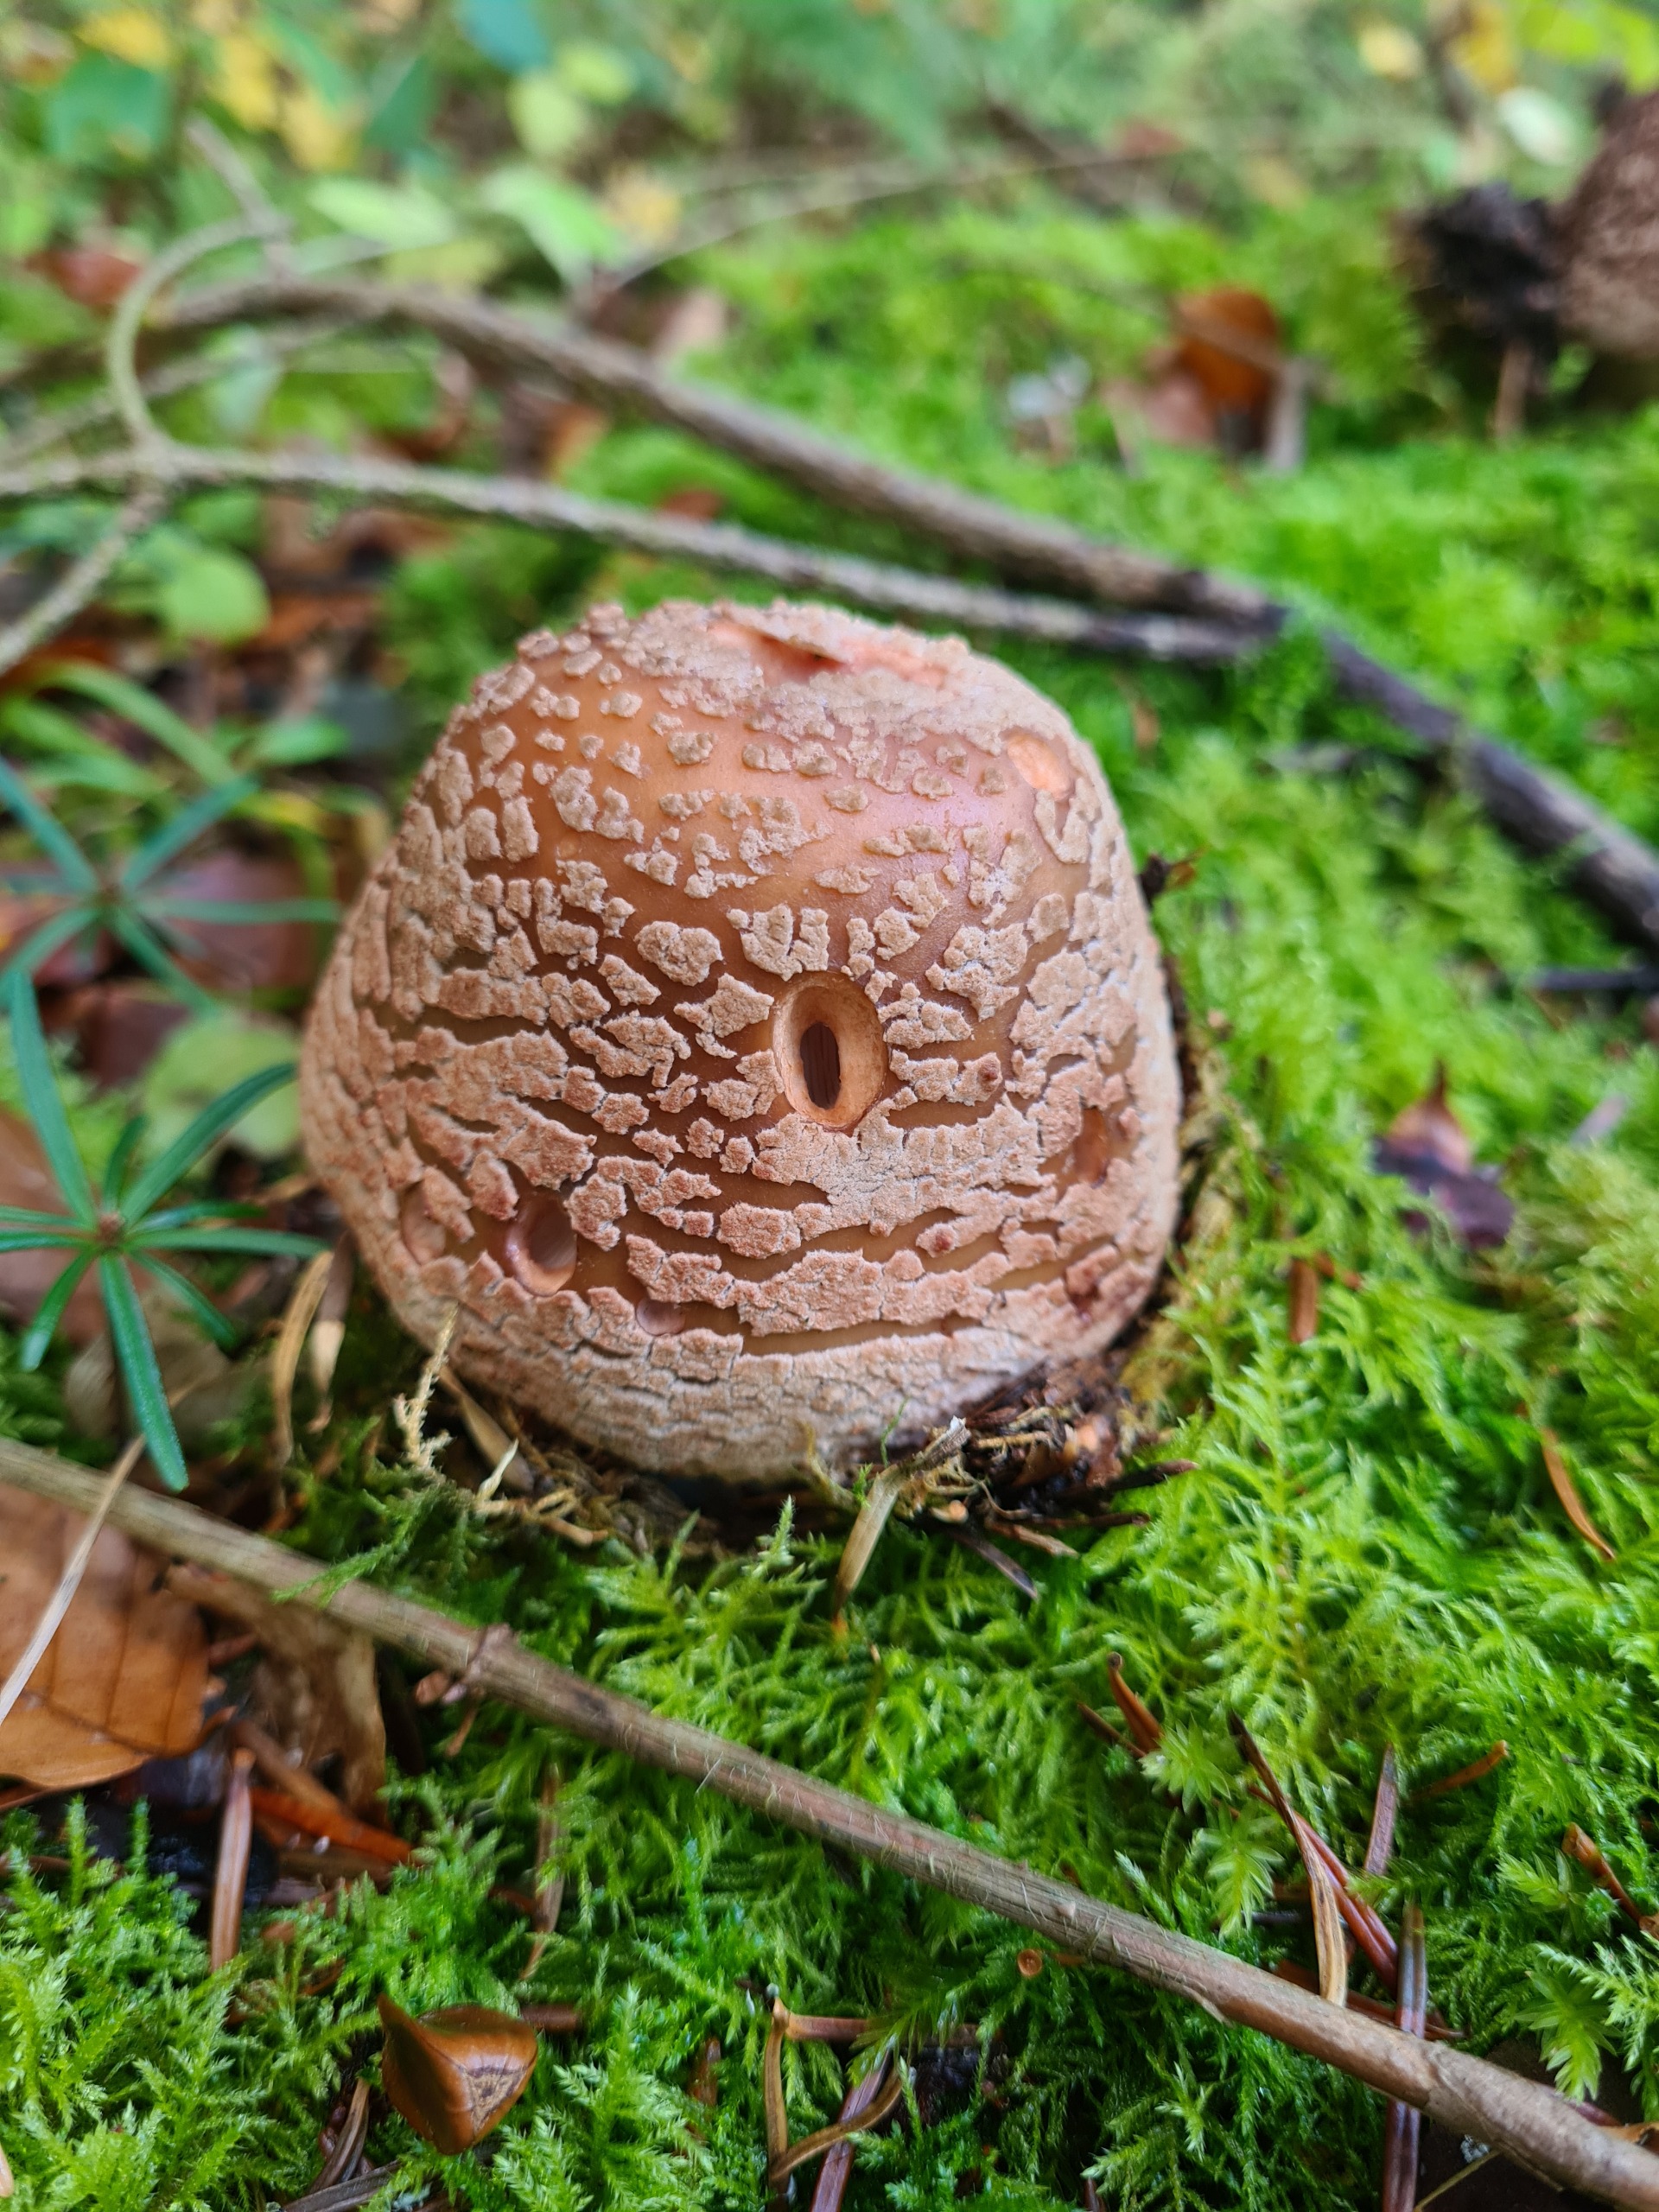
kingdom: Fungi
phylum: Basidiomycota
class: Agaricomycetes
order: Agaricales
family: Amanitaceae
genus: Amanita
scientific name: Amanita rubescens
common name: Rødmende fluesvamp
